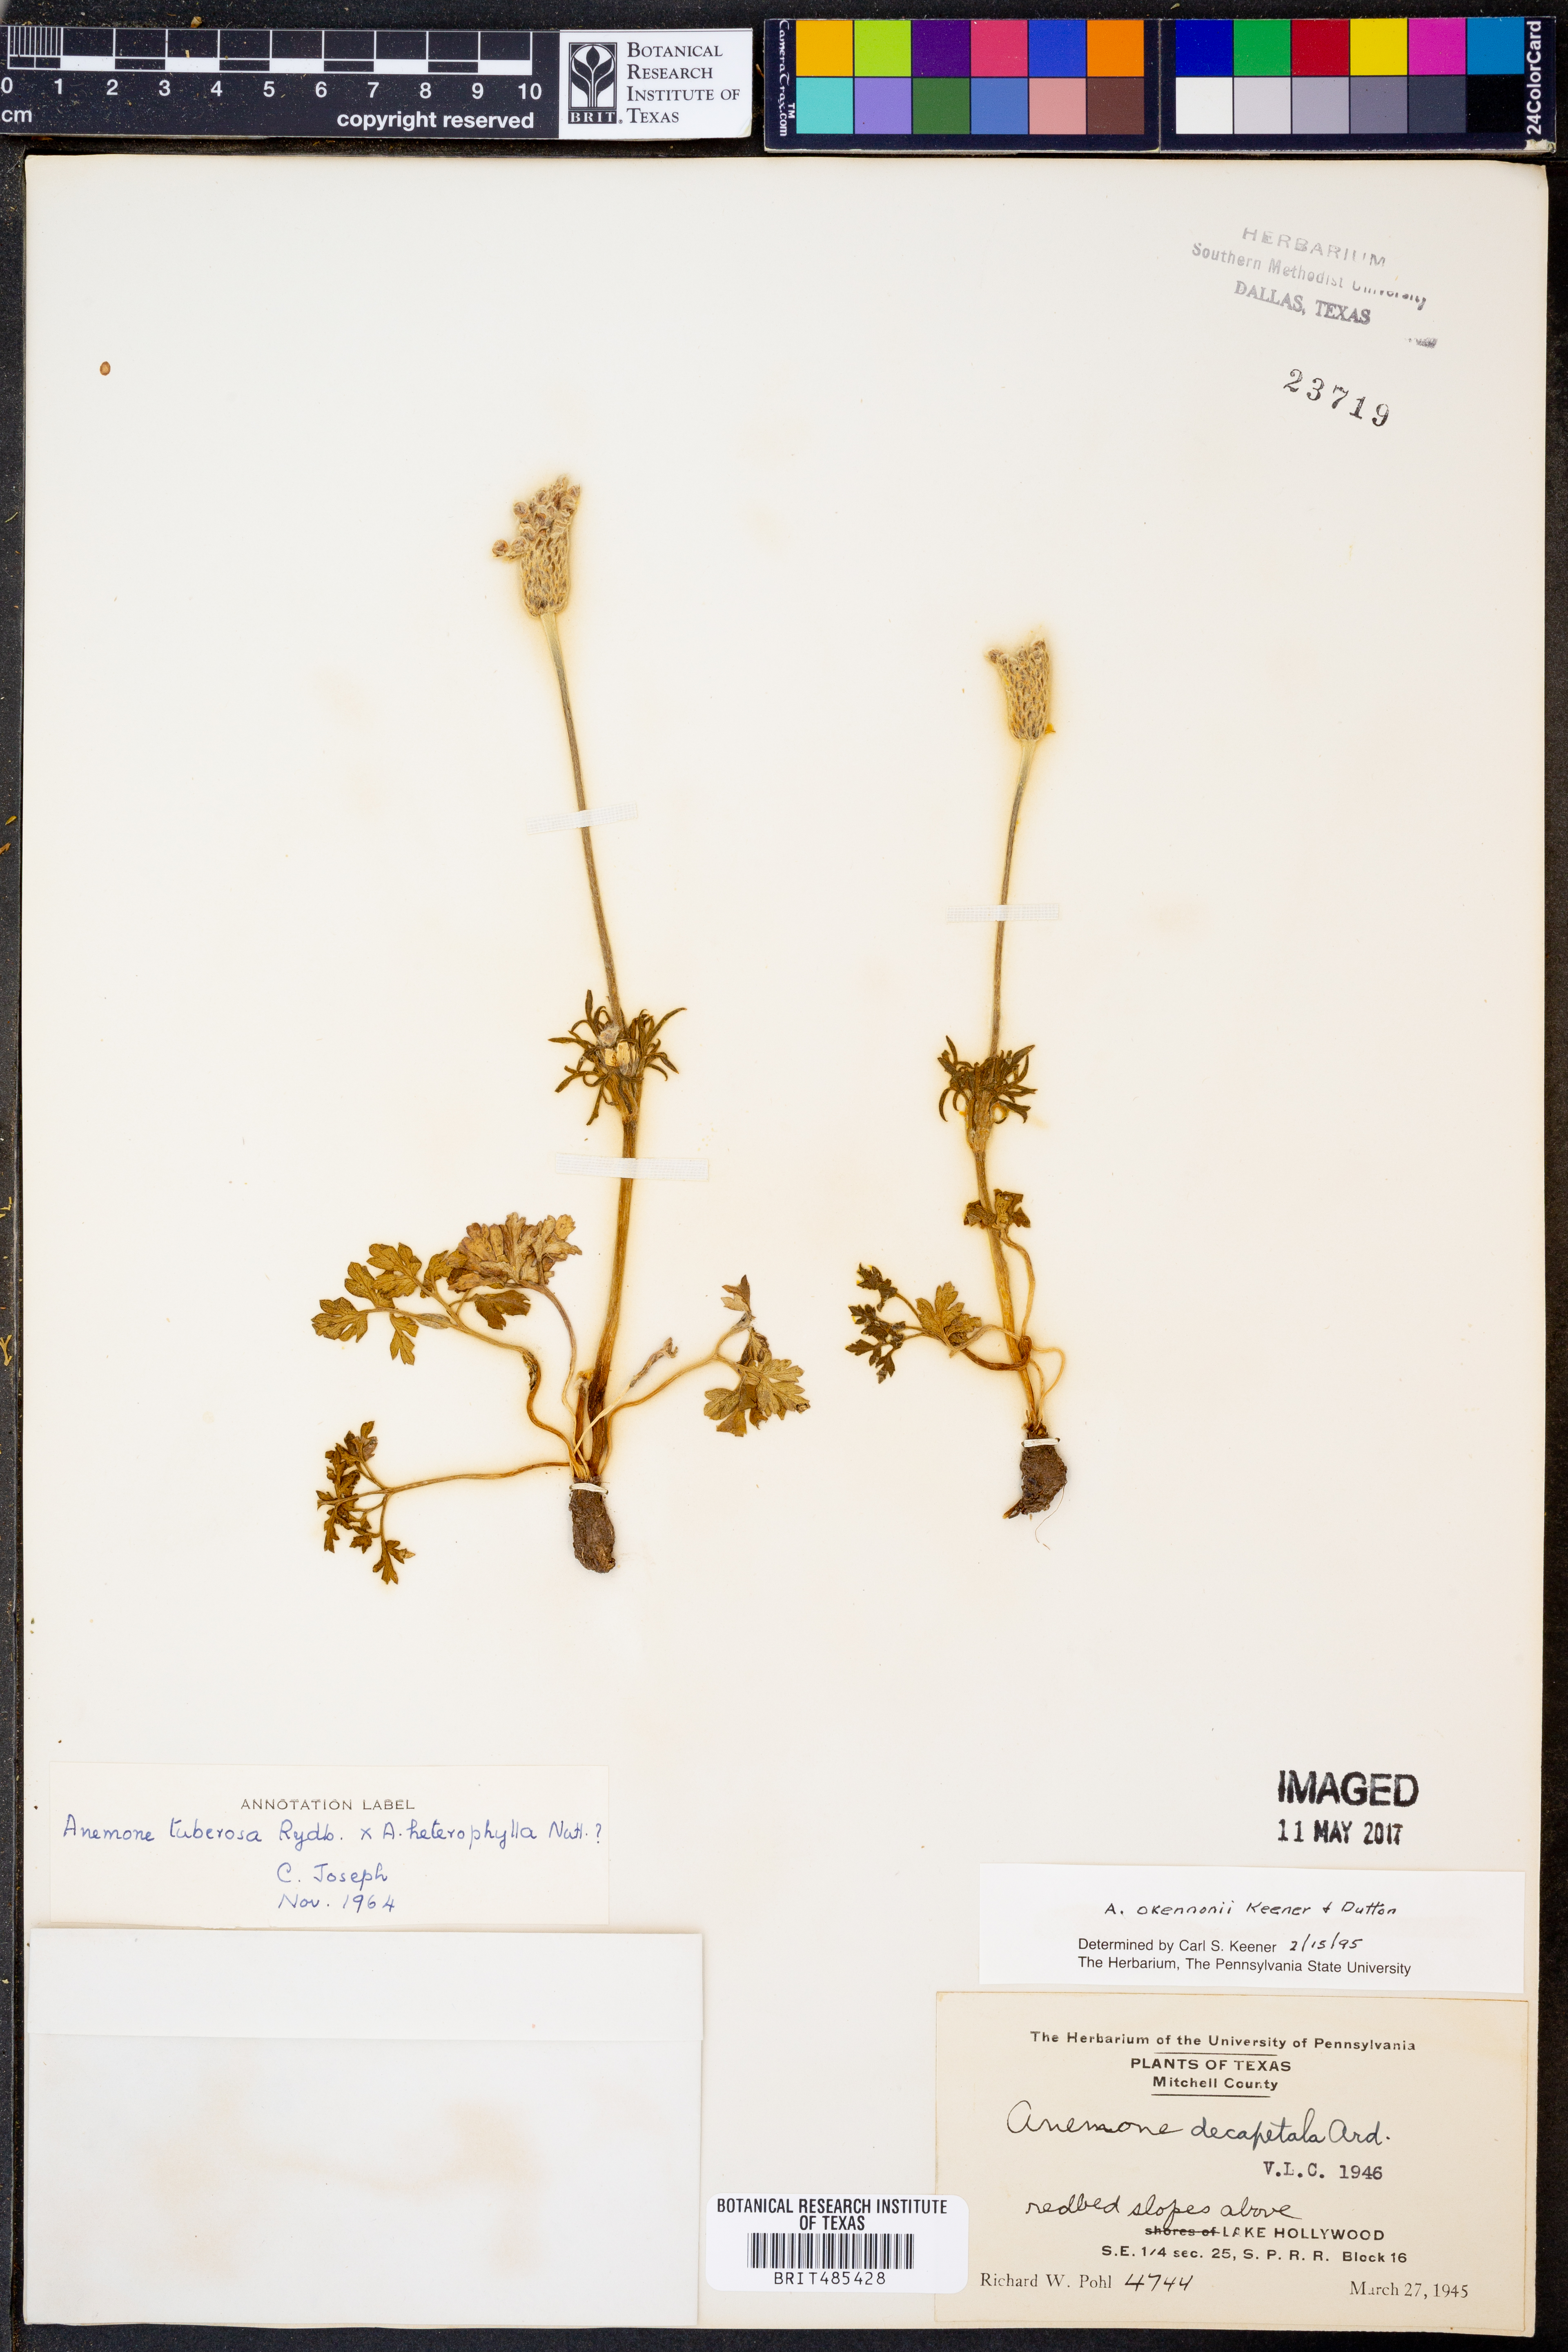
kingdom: Plantae
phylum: Tracheophyta
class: Magnoliopsida
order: Ranunculales
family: Ranunculaceae
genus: Anemone
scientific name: Anemone tuberosa
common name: Desert anemone
